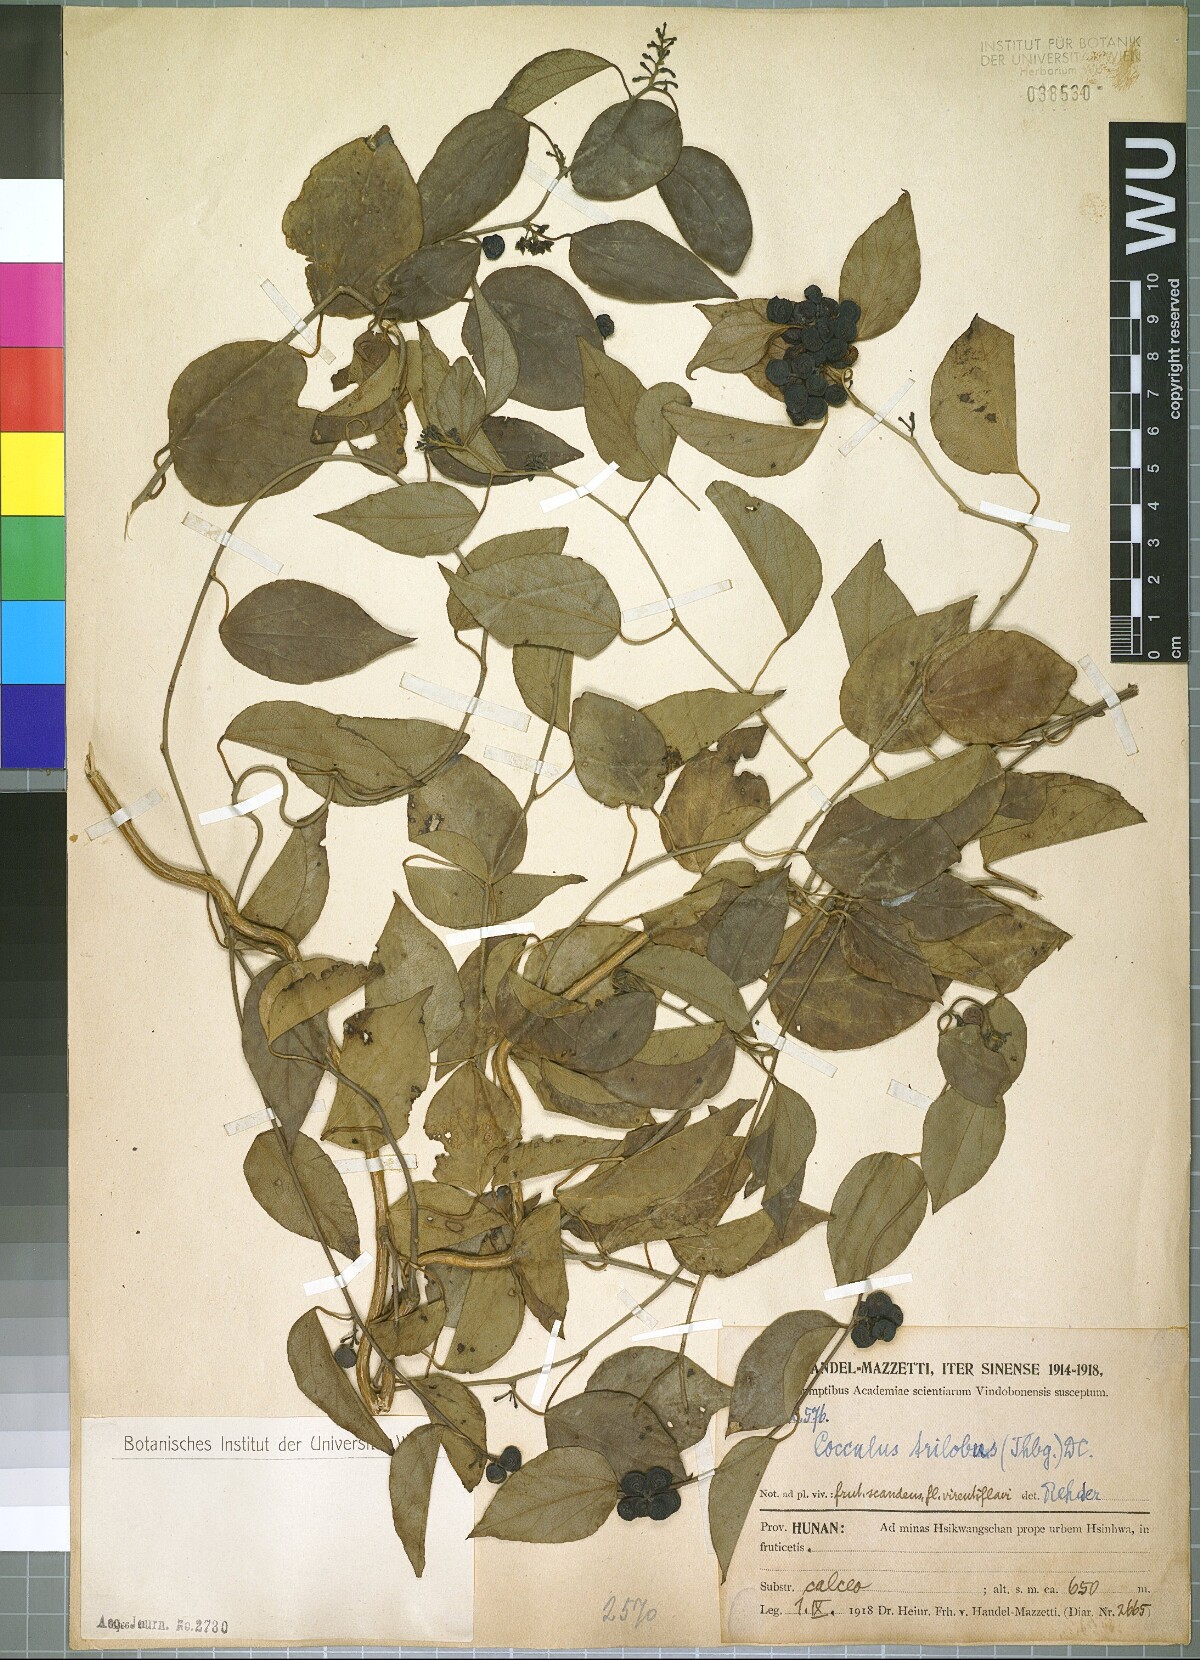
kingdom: Plantae
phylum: Tracheophyta
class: Magnoliopsida
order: Ranunculales
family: Menispermaceae
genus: Cocculus
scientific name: Cocculus orbiculatus
